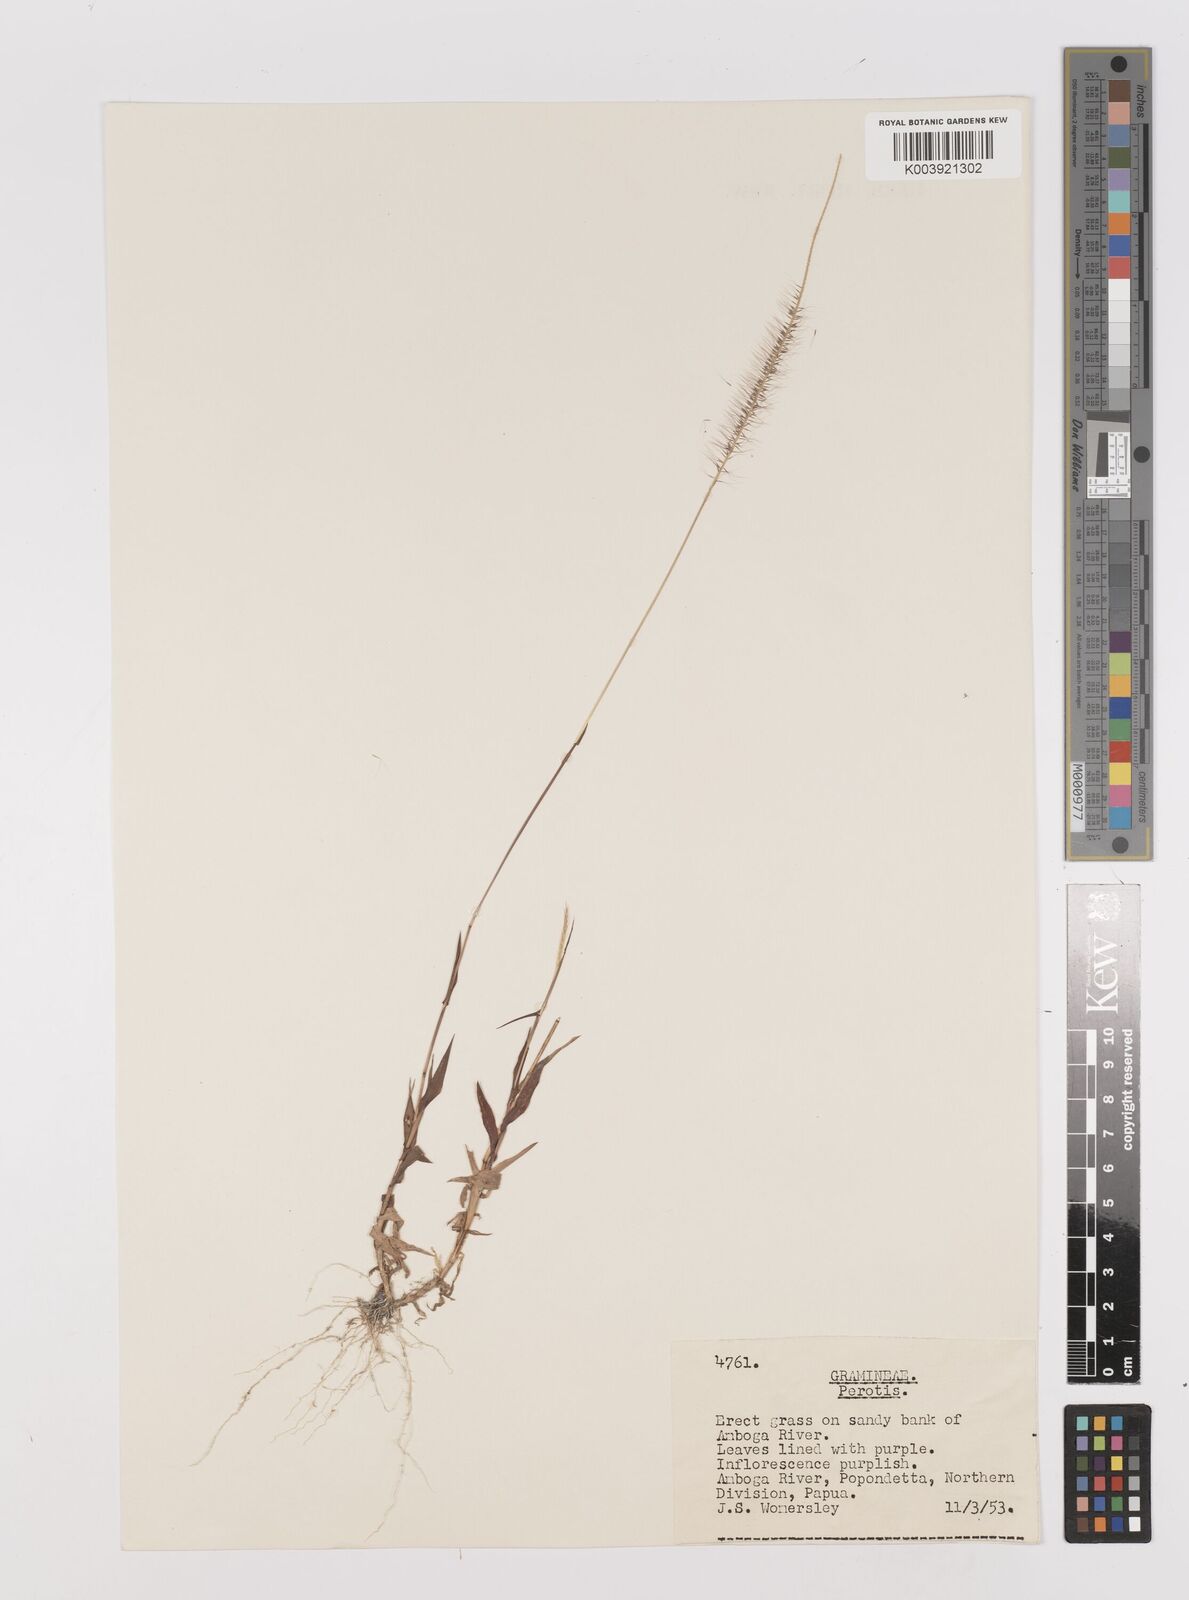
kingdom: Plantae
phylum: Tracheophyta
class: Liliopsida
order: Poales
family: Poaceae
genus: Perotis
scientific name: Perotis hordeiformis
